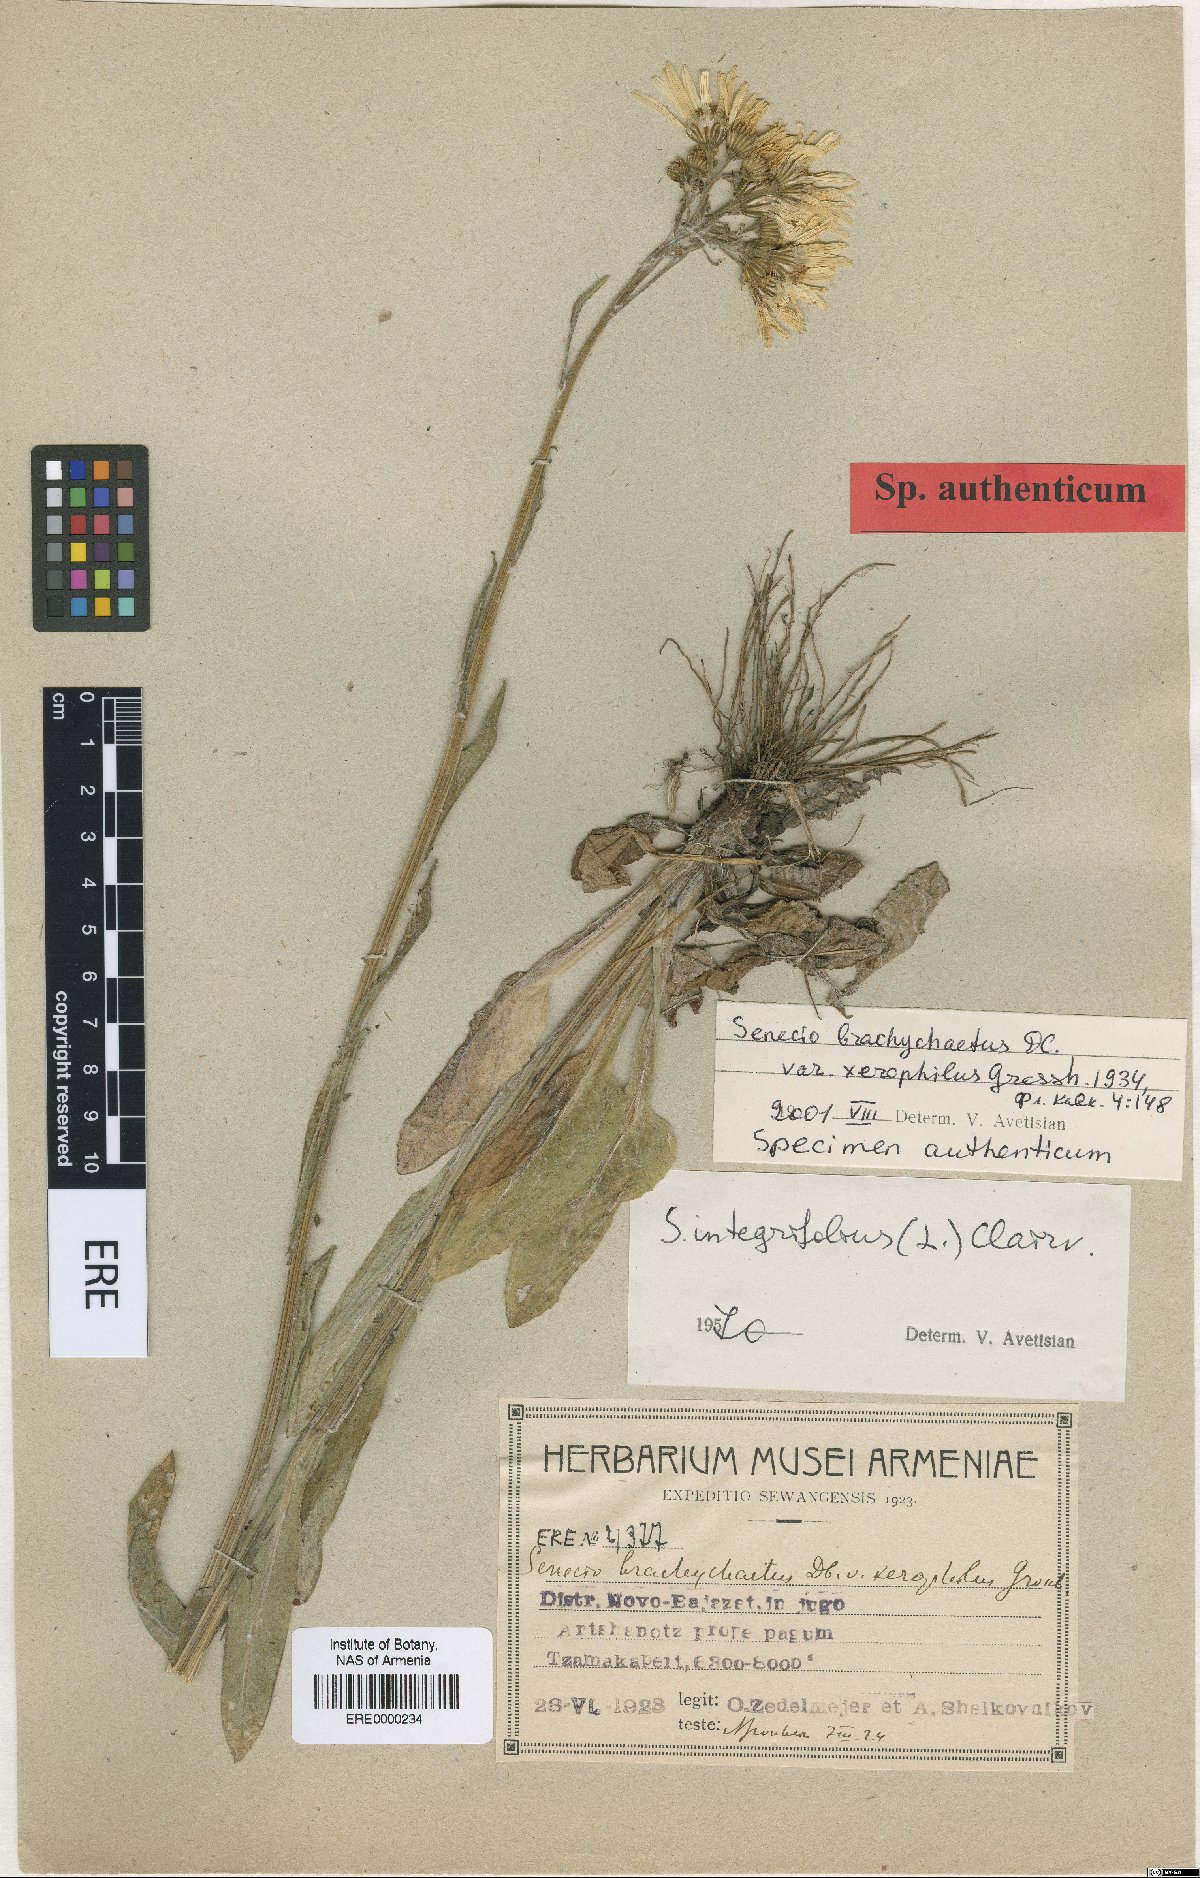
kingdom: Plantae
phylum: Tracheophyta
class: Magnoliopsida
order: Asterales
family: Asteraceae
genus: Tephroseris
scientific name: Tephroseris
